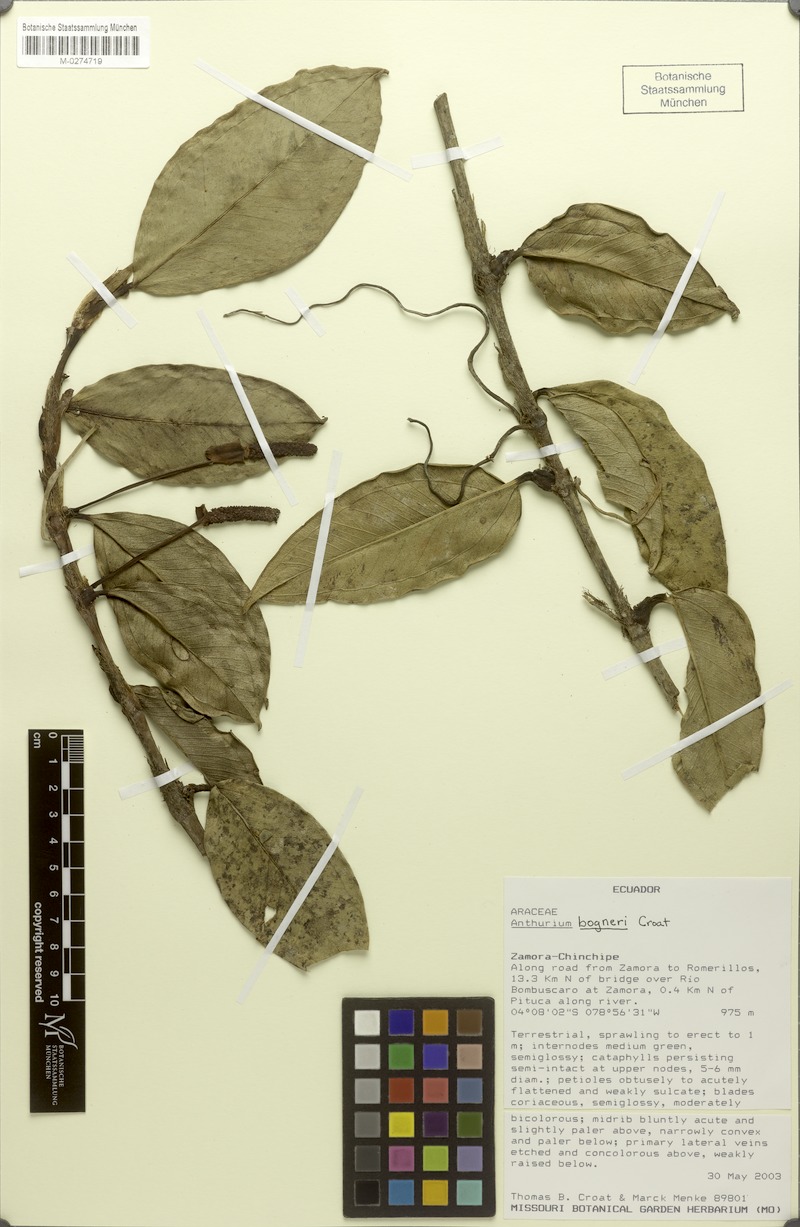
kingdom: Plantae
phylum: Tracheophyta
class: Liliopsida
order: Alismatales
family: Araceae
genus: Anthurium
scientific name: Anthurium bogneri
